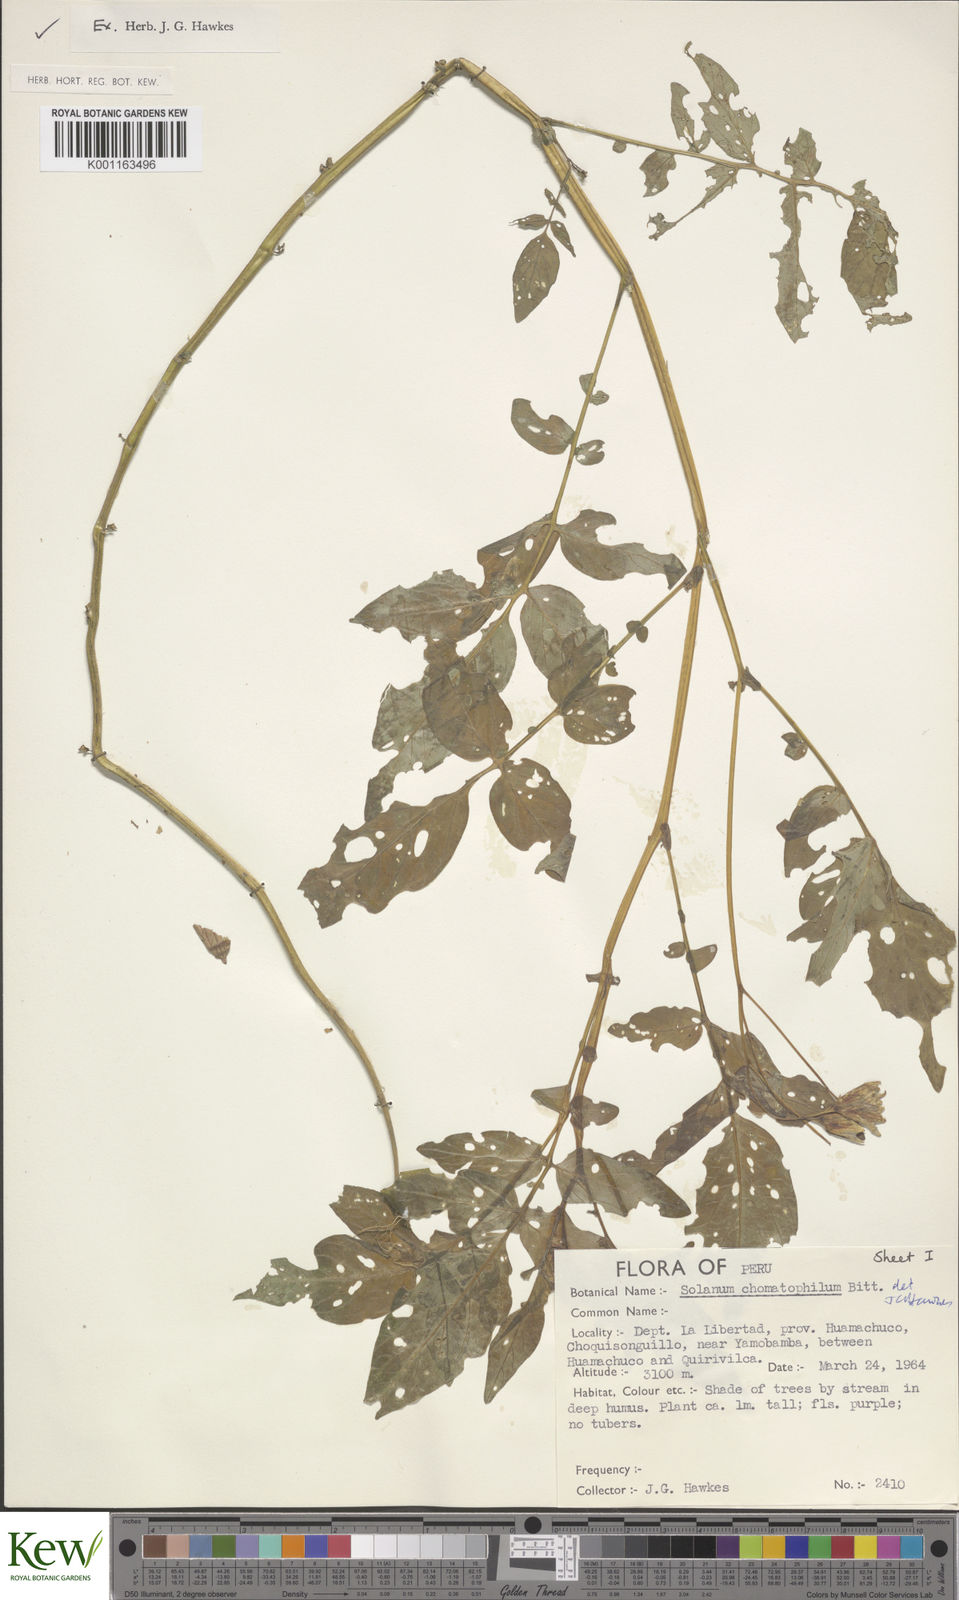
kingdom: Plantae
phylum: Tracheophyta
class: Magnoliopsida
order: Solanales
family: Solanaceae
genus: Solanum
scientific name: Solanum chomatophilum
